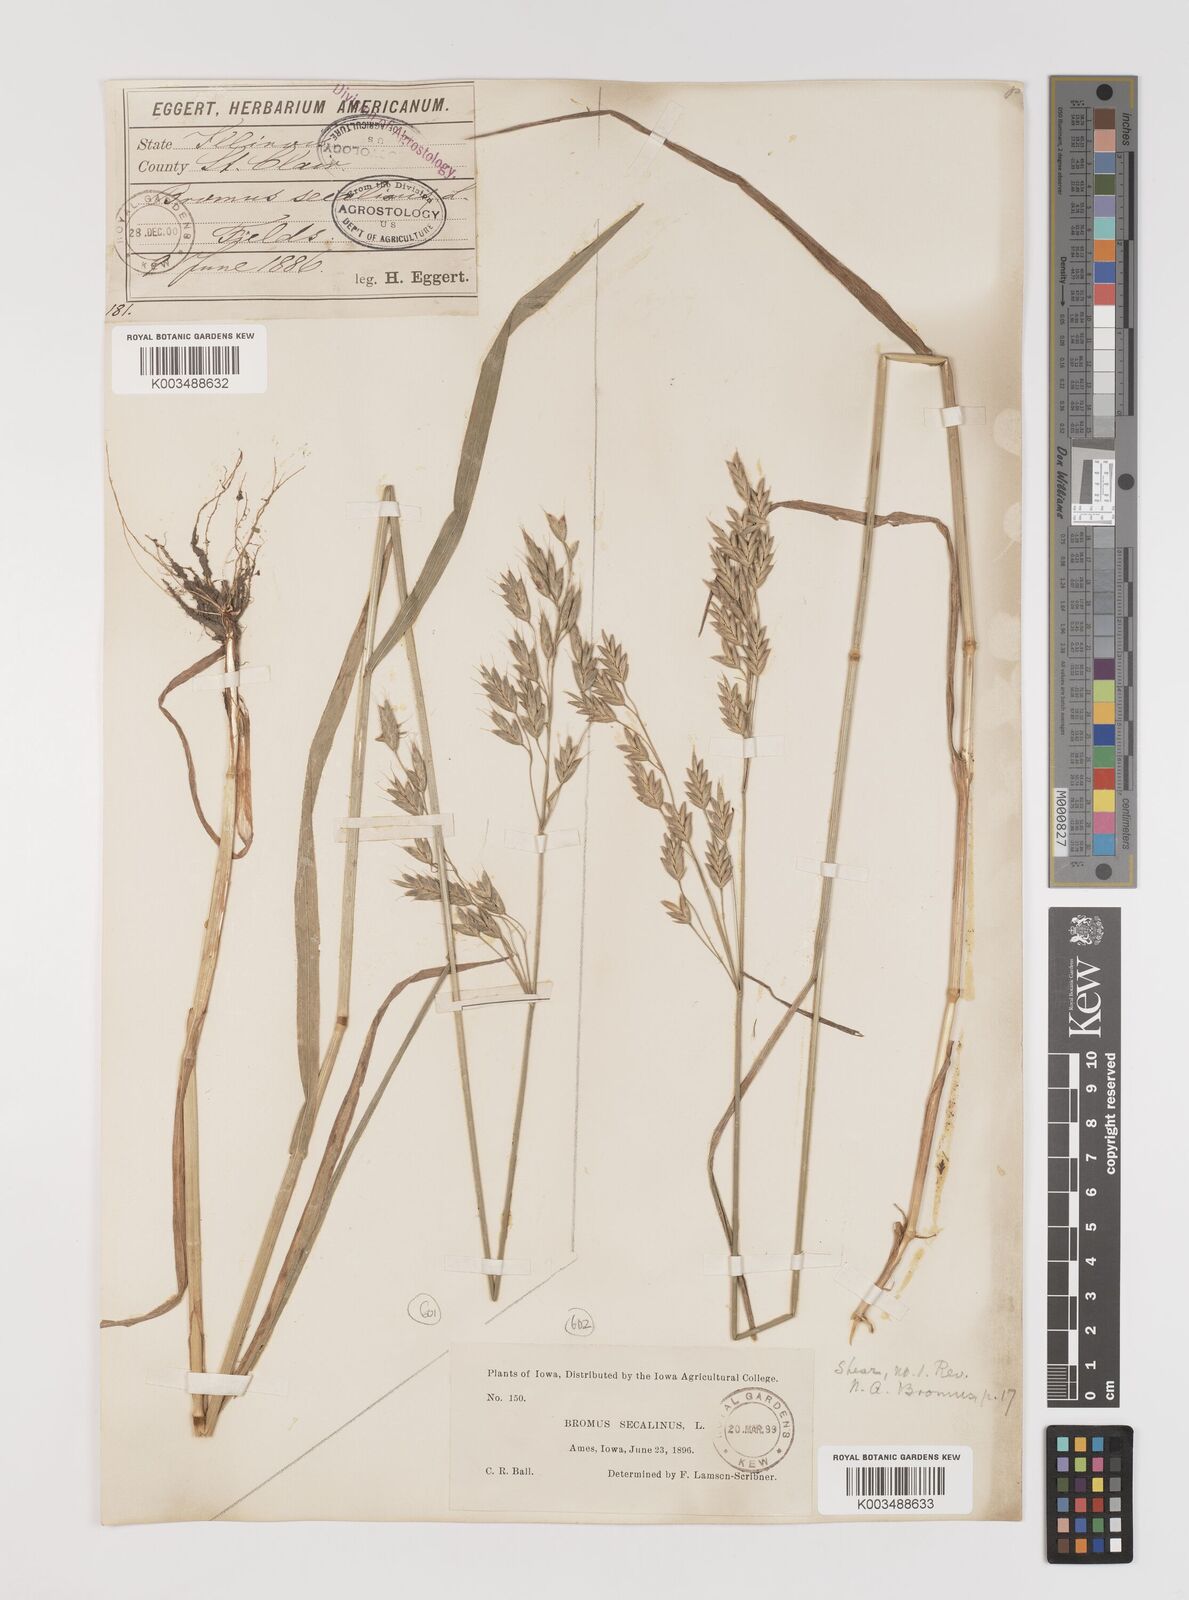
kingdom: Plantae
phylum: Tracheophyta
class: Liliopsida
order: Poales
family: Poaceae
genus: Bromus
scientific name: Bromus secalinus
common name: Rye brome
